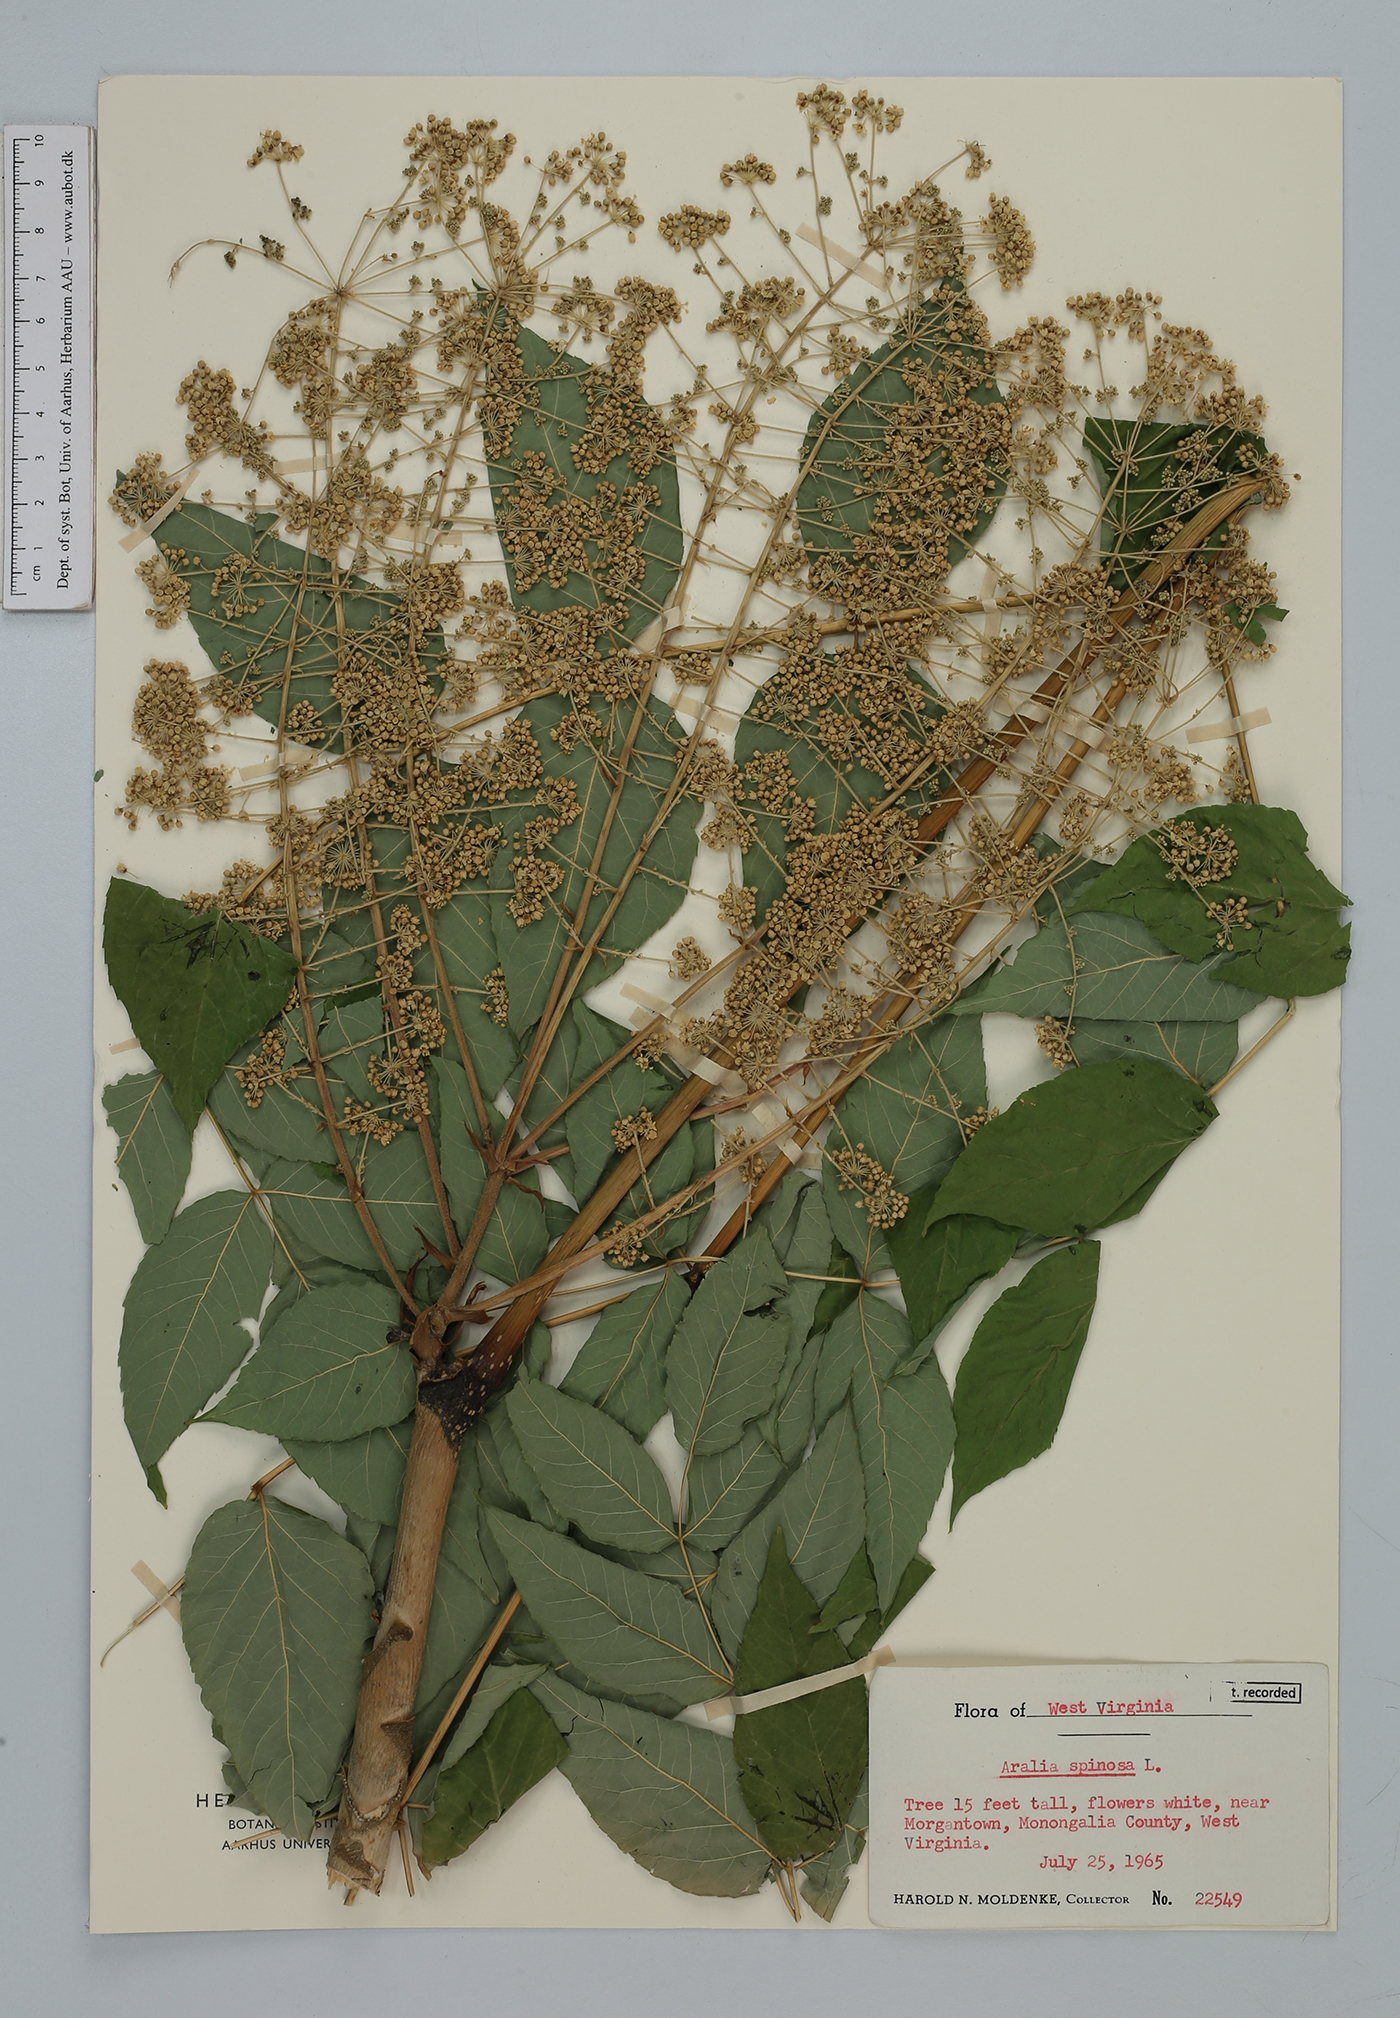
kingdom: Plantae
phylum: Tracheophyta
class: Magnoliopsida
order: Apiales
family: Araliaceae
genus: Aralia
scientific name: Aralia spinosa
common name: Hercules'-club
